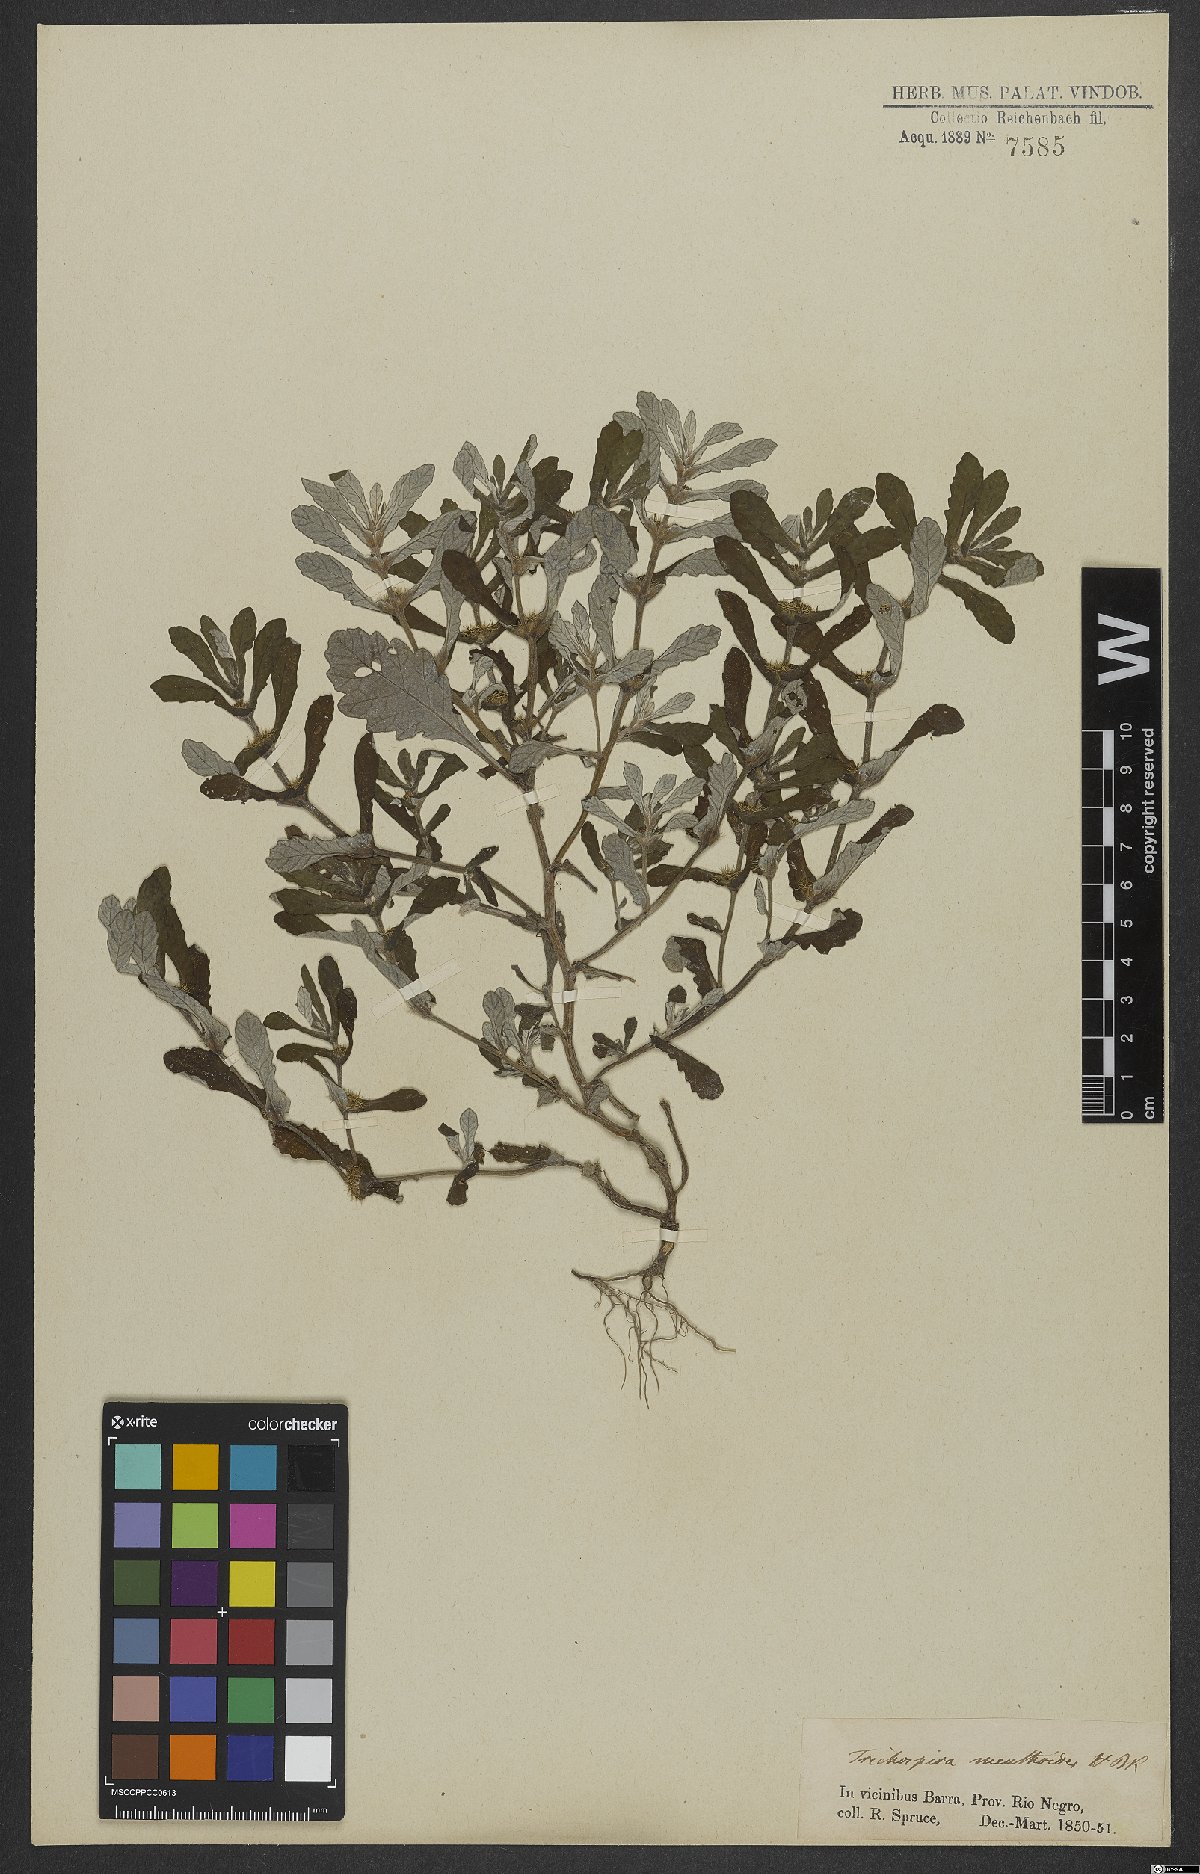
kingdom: Chromista
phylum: Ciliophora
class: Kinetofragminophora
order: Trichostomatida
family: Trichospiridae
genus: Trichospira
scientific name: Trichospira verticillata
